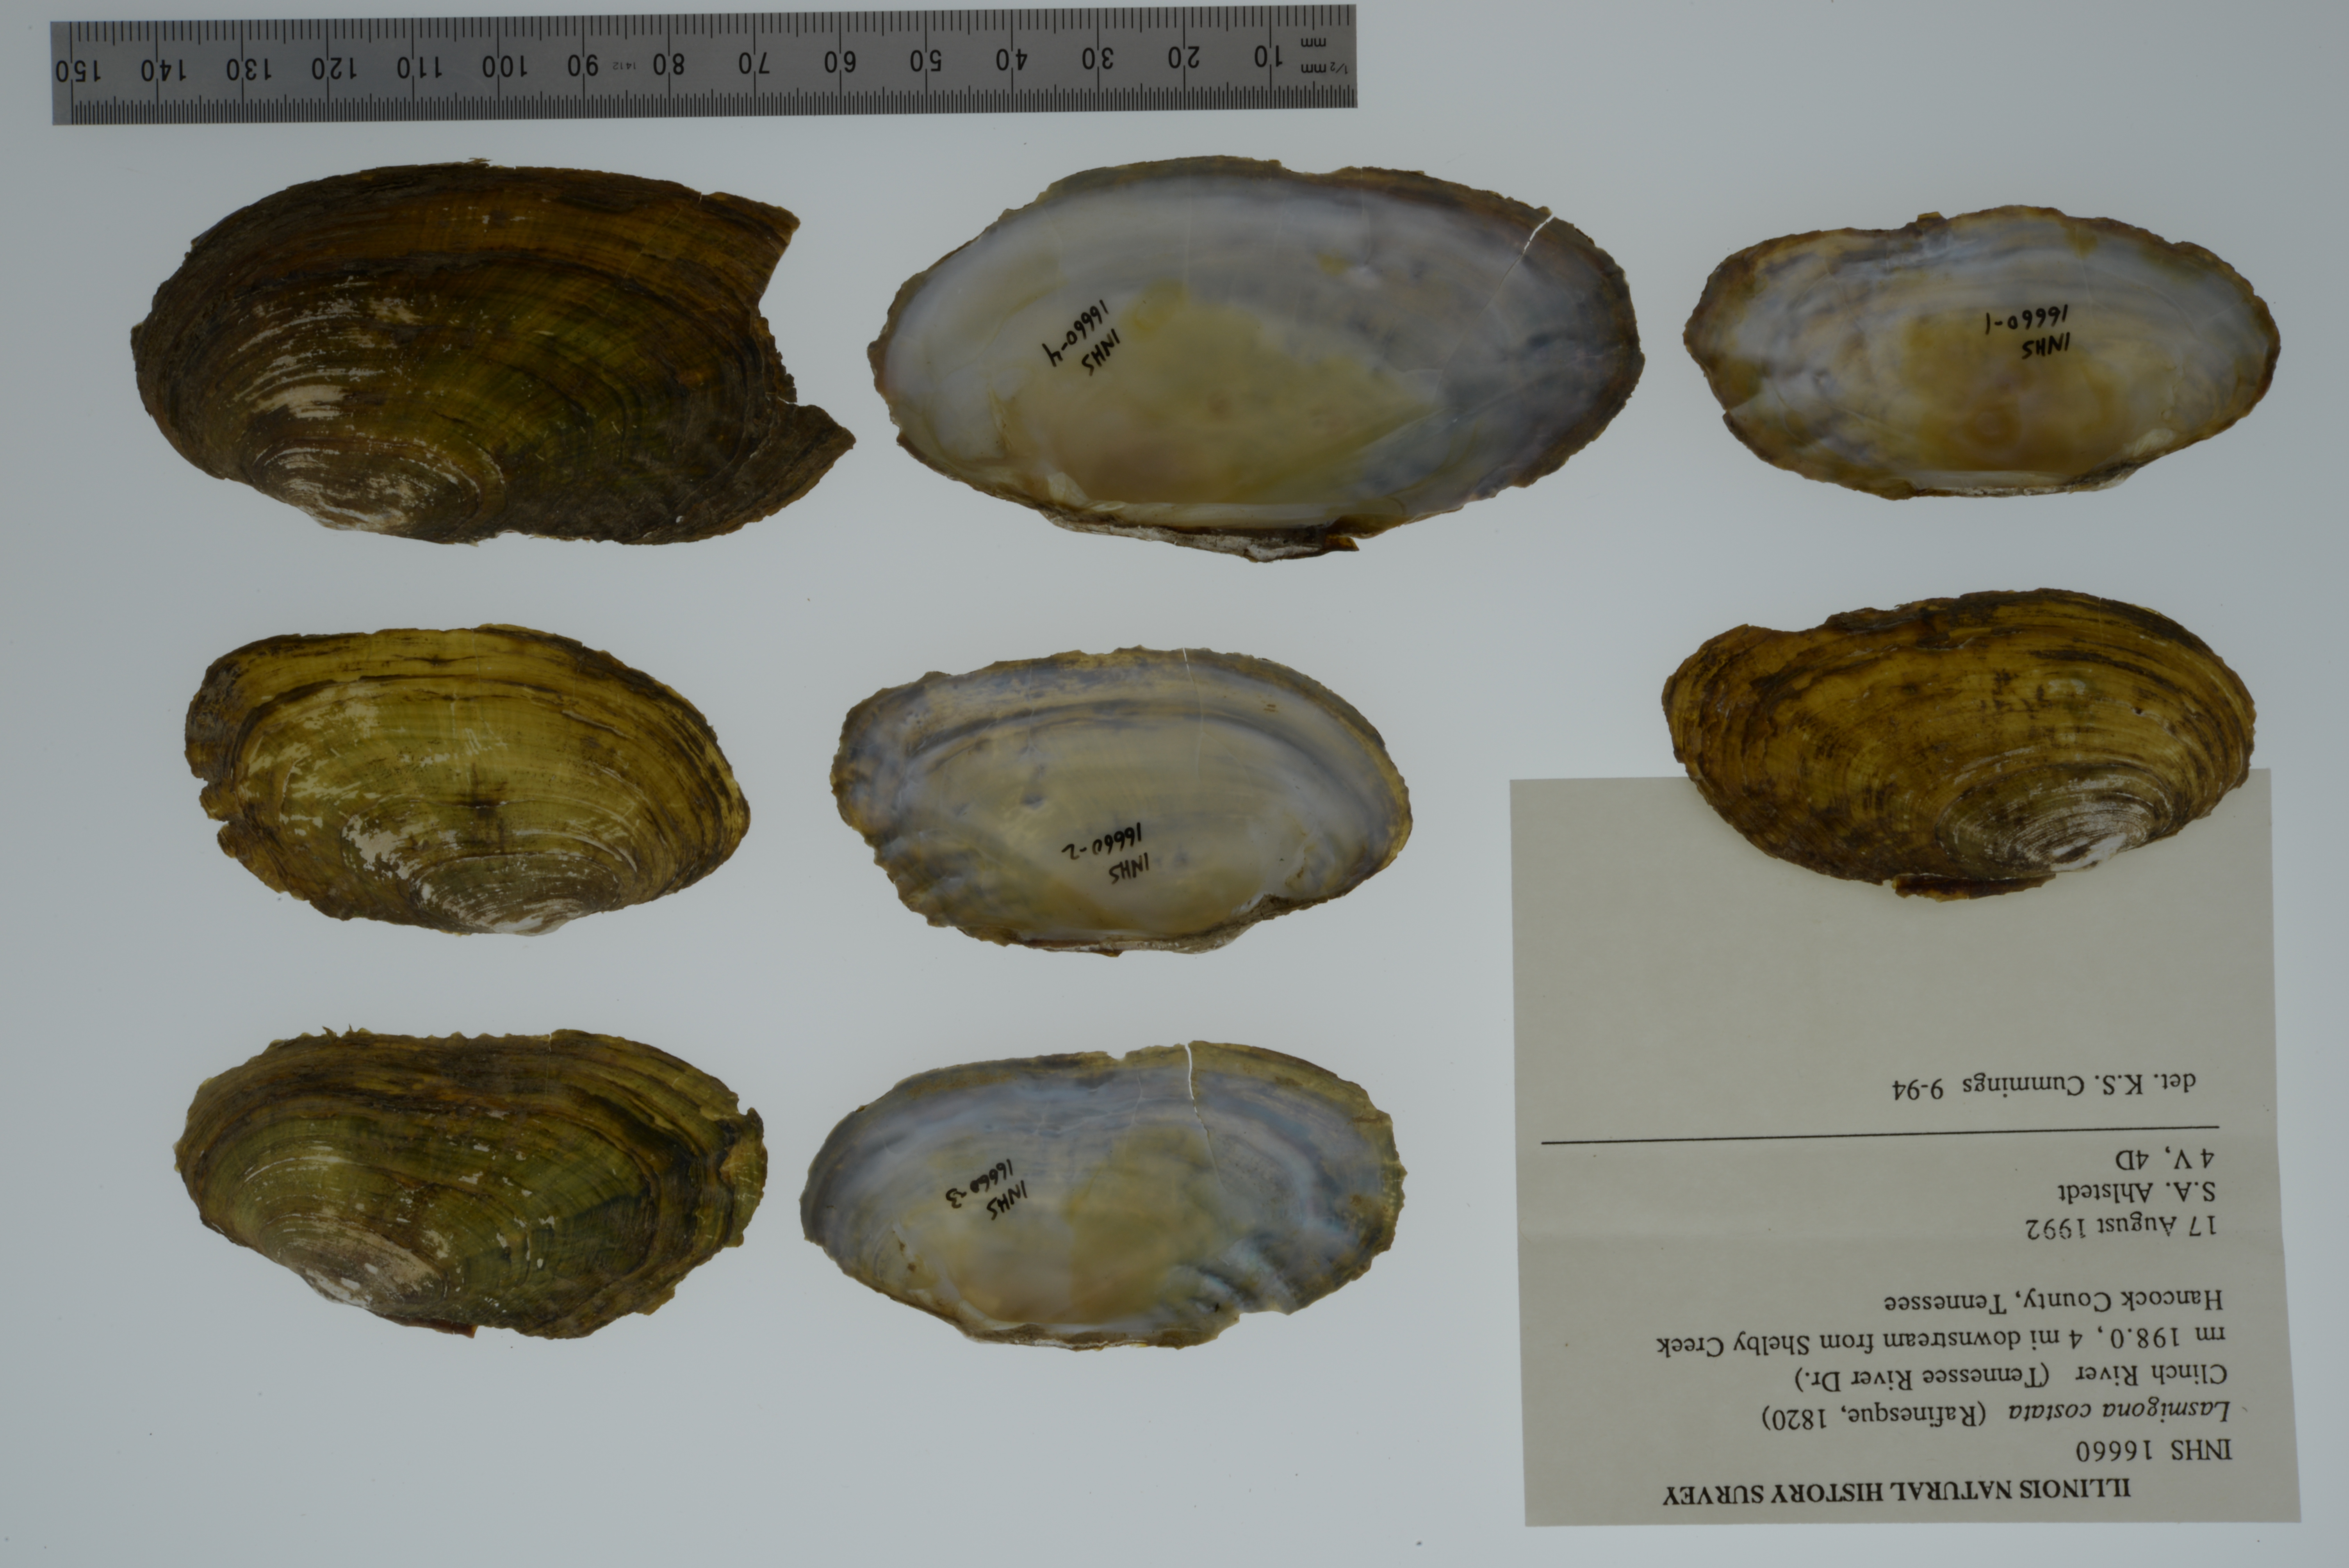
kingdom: Animalia
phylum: Mollusca
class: Bivalvia
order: Unionida
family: Unionidae
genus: Lasmigona
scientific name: Lasmigona costata
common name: Flutedshell
